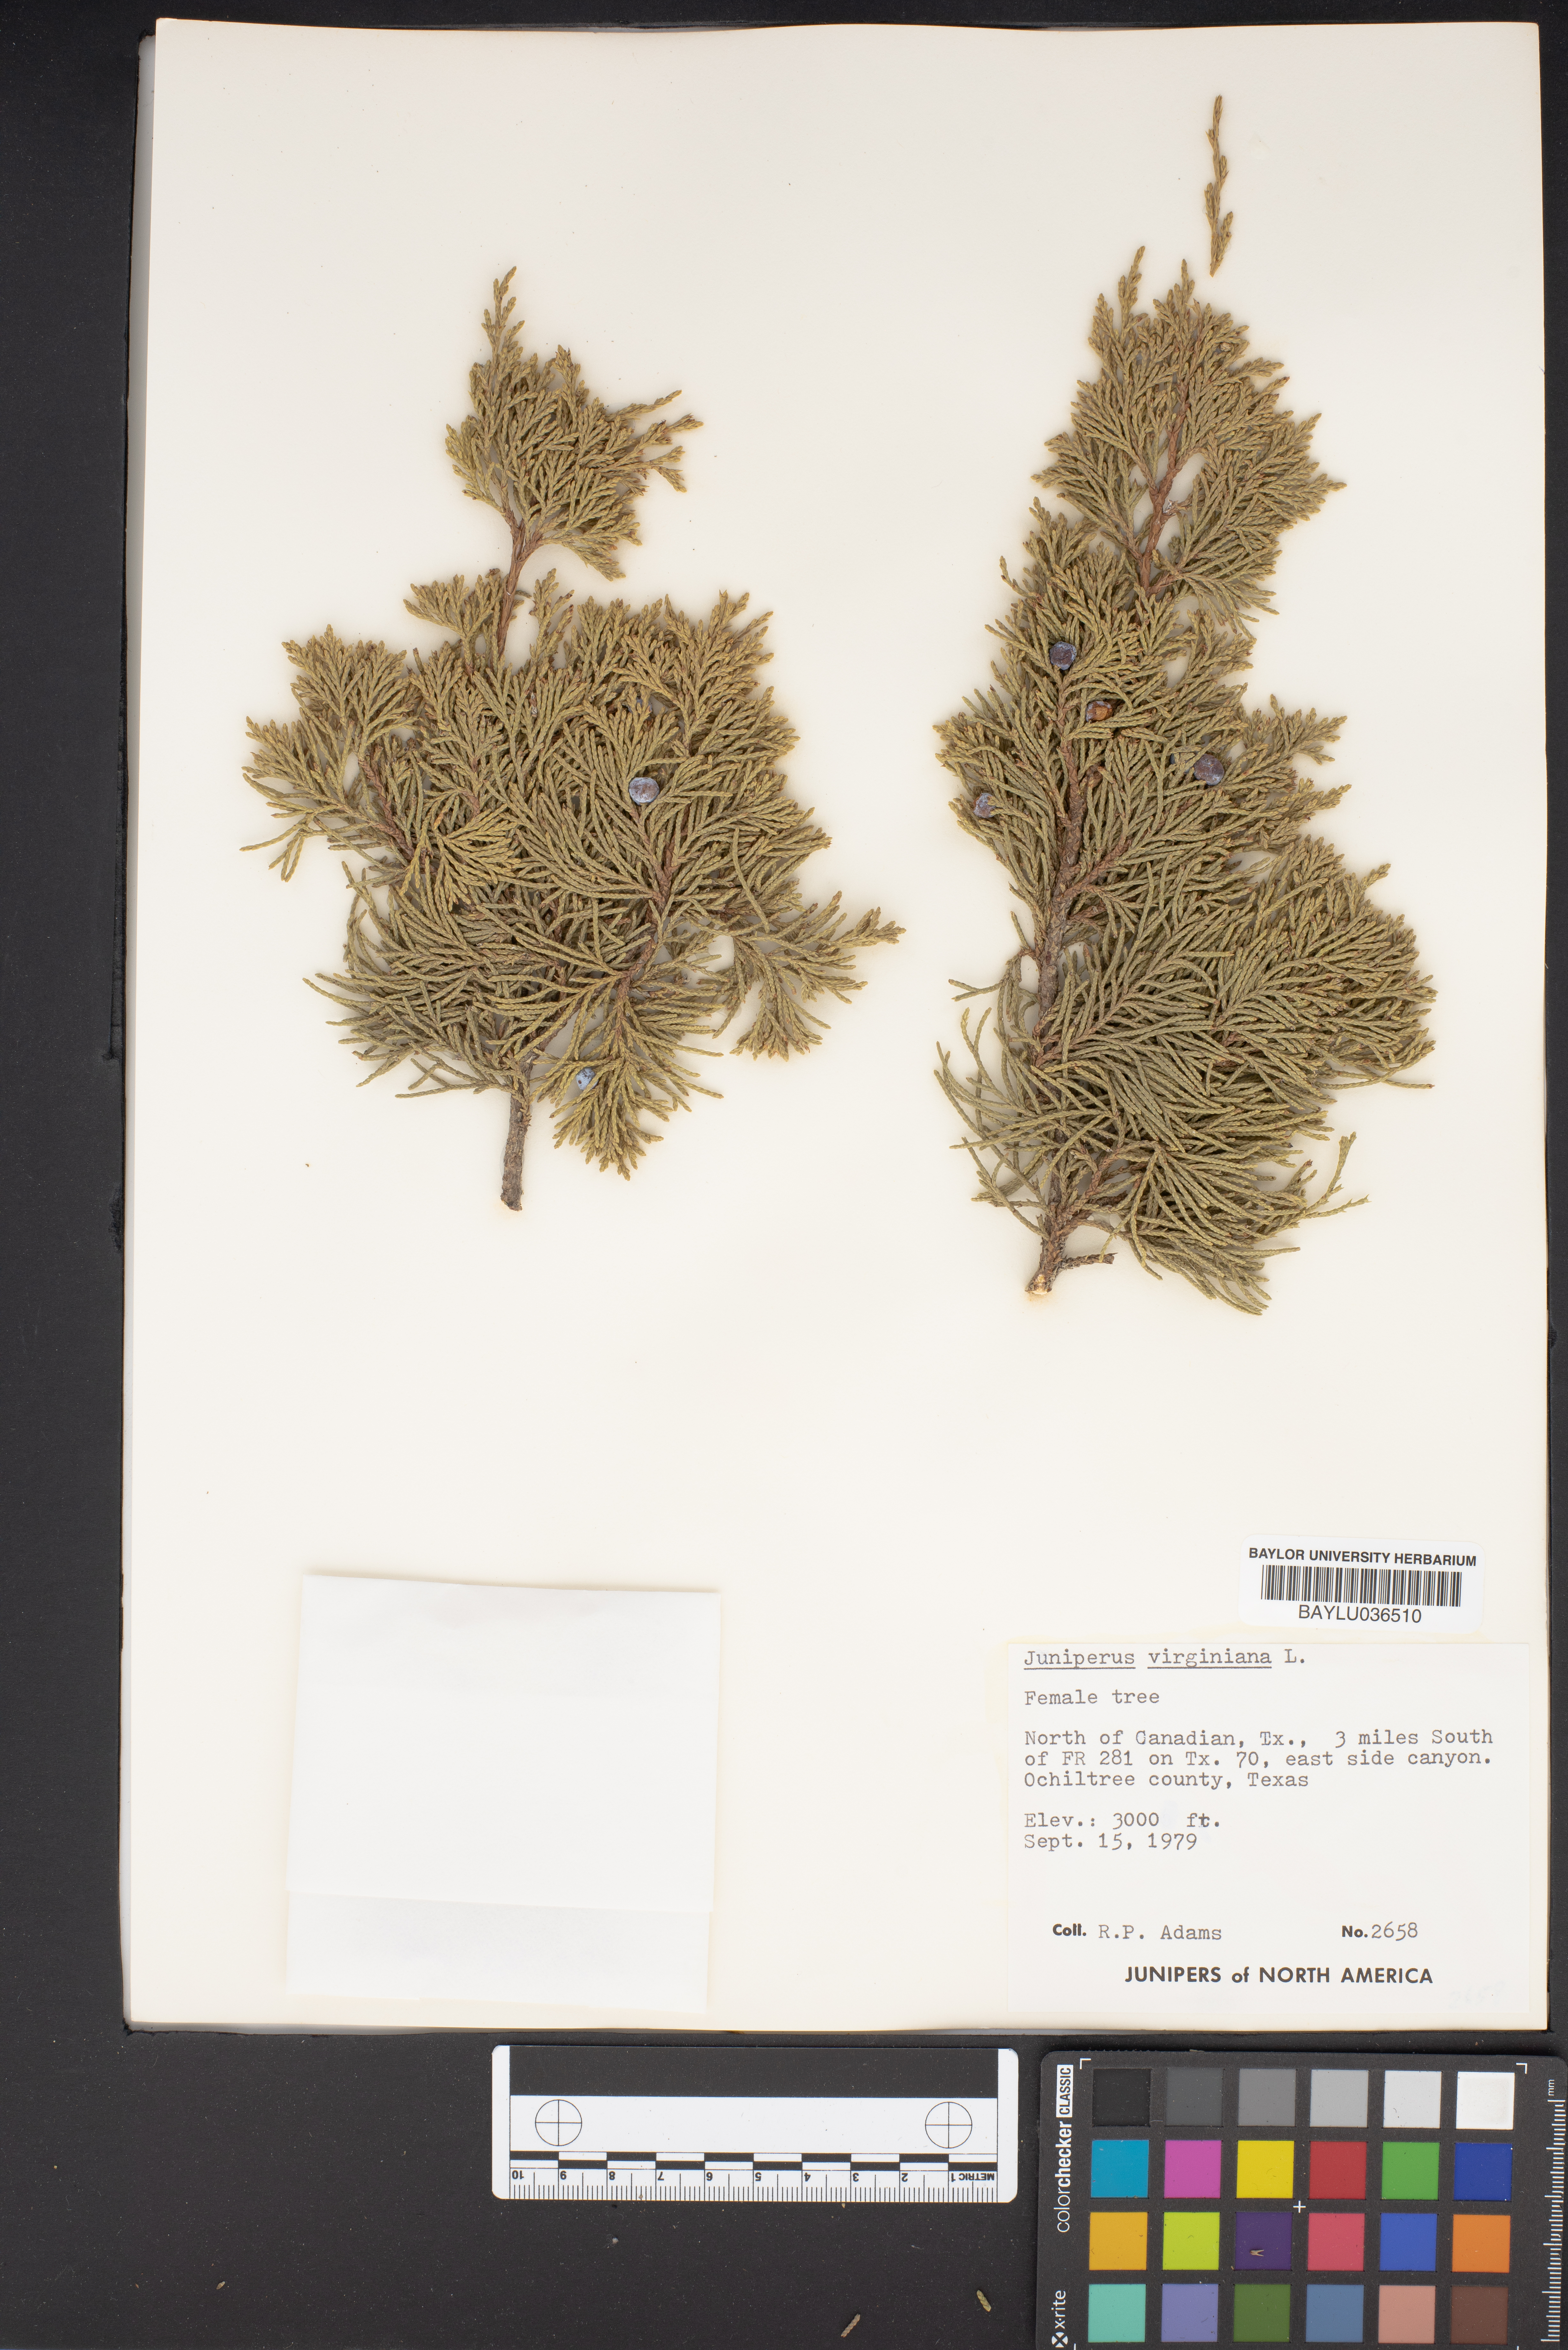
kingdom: Plantae
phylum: Tracheophyta
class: Pinopsida
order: Pinales
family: Cupressaceae
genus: Juniperus
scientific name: Juniperus virginiana
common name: Red juniper
